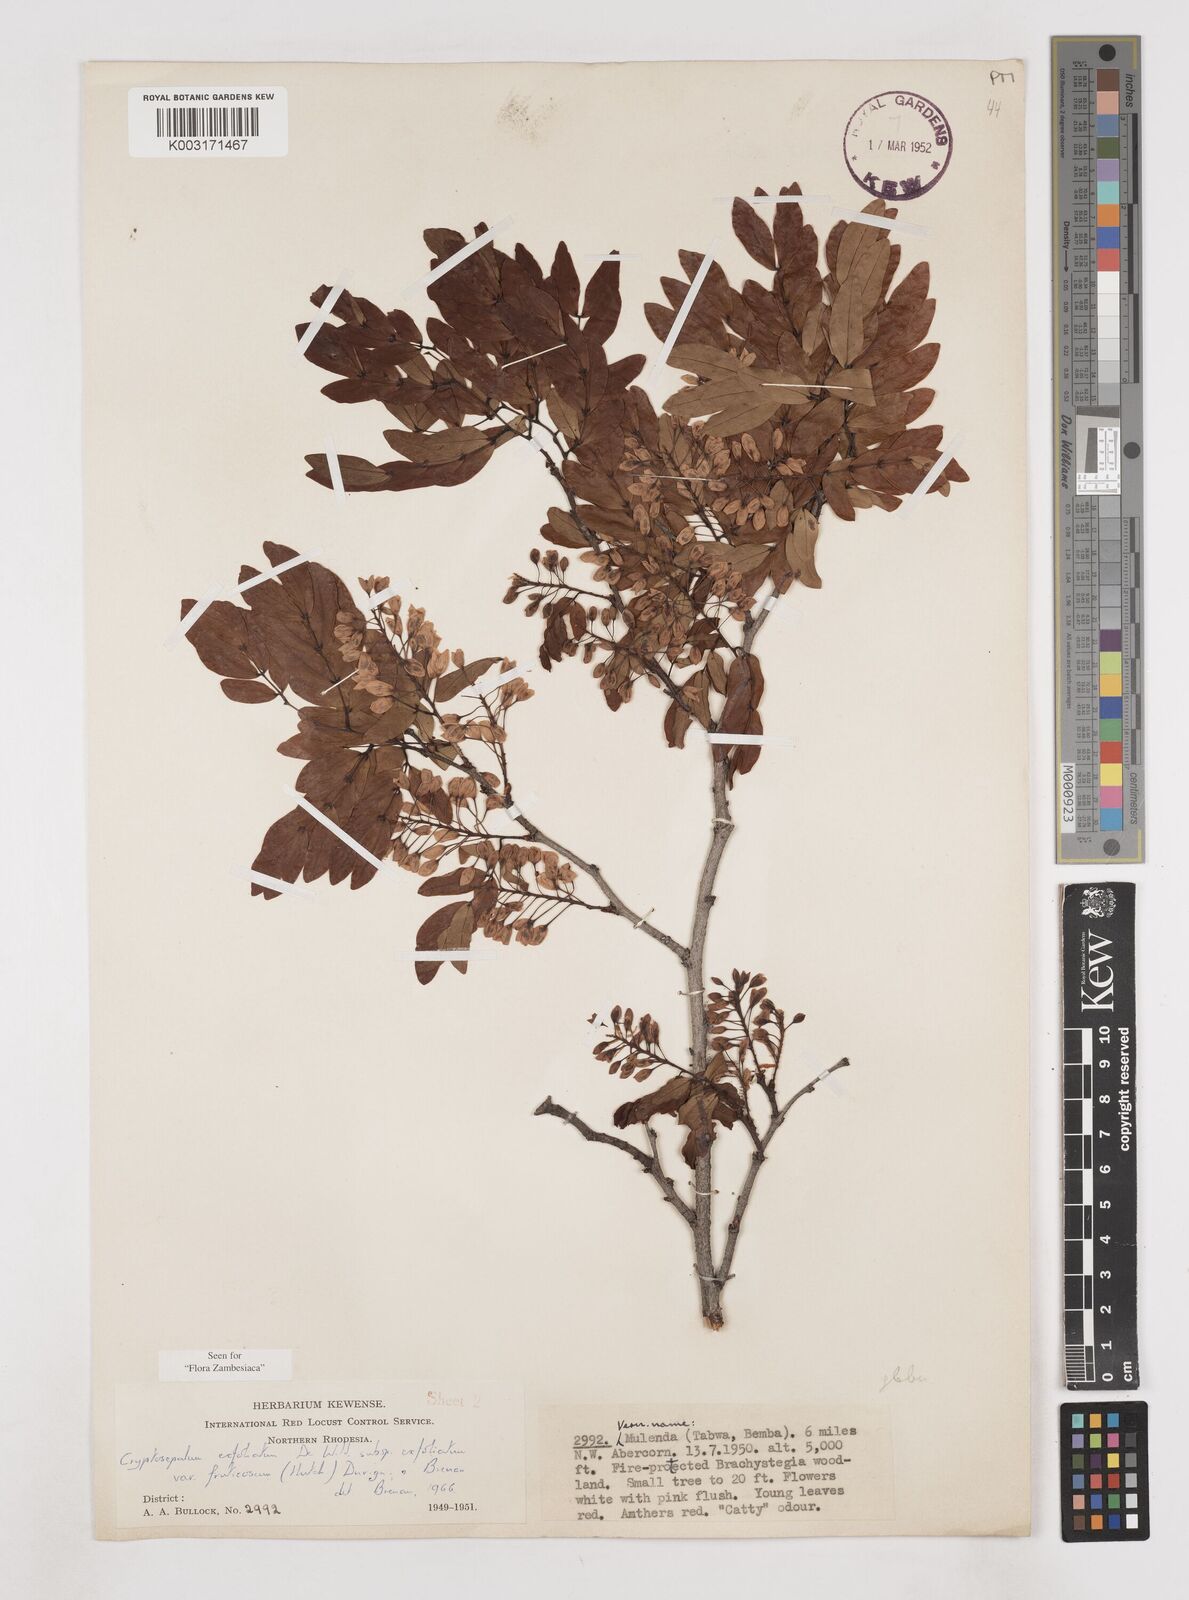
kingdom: Plantae
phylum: Tracheophyta
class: Magnoliopsida
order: Fabales
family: Fabaceae
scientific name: Fabaceae
